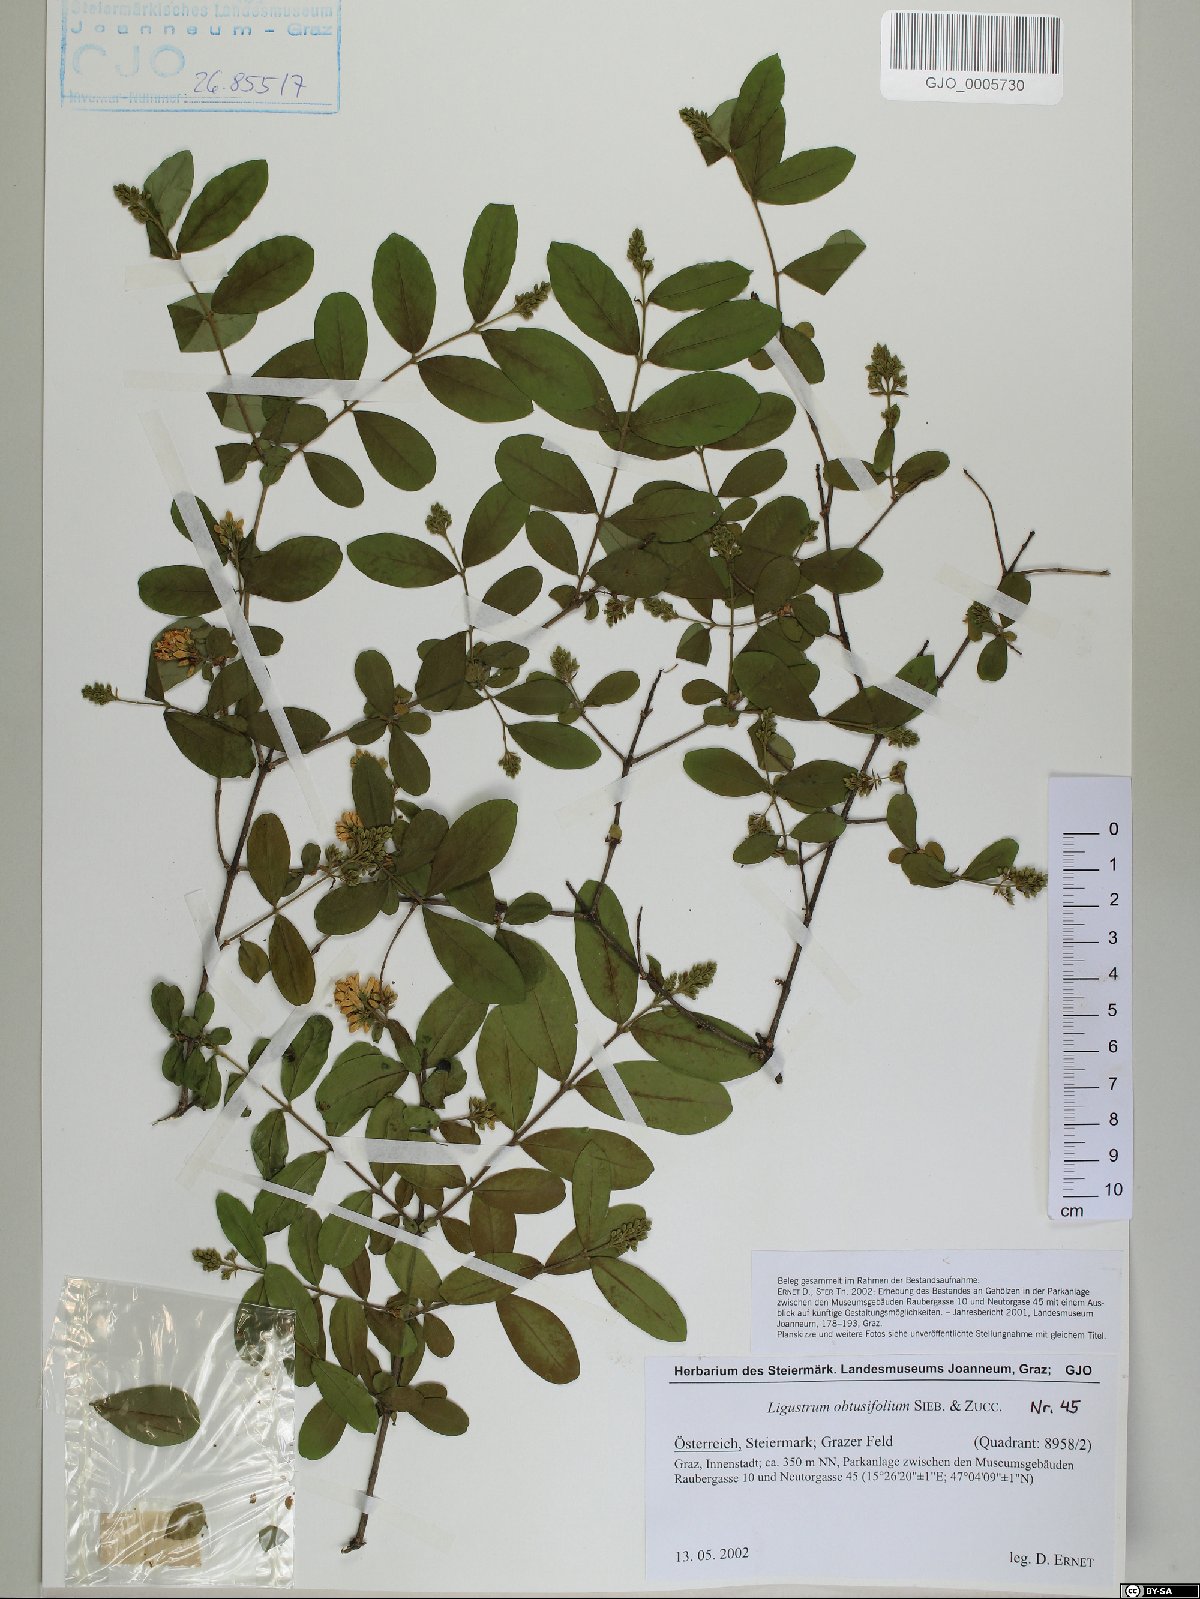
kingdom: Plantae
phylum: Tracheophyta
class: Magnoliopsida
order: Lamiales
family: Oleaceae
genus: Ligustrum
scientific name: Ligustrum obtusifolium
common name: Border privet
